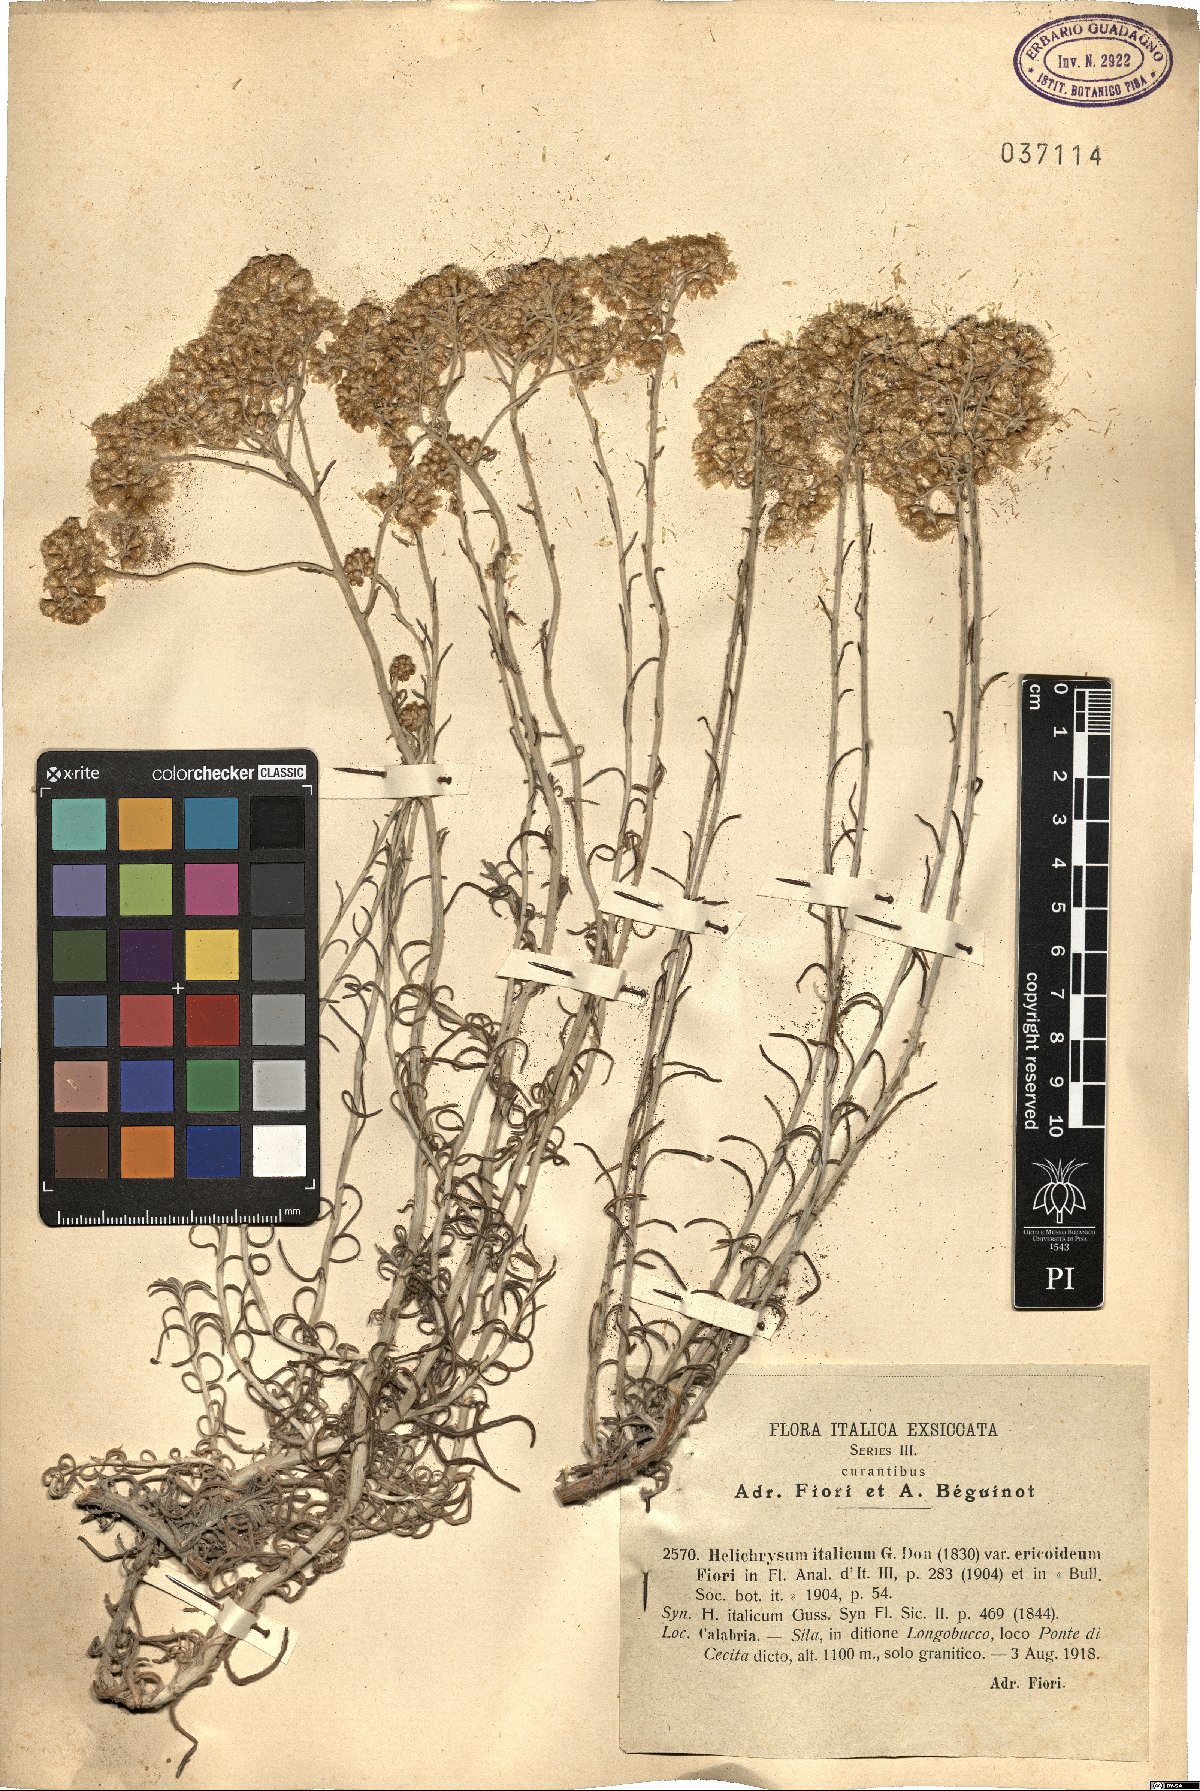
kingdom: Plantae
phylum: Tracheophyta
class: Magnoliopsida
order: Asterales
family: Asteraceae
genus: Helichrysum
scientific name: Helichrysum italicum
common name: Curryplant
